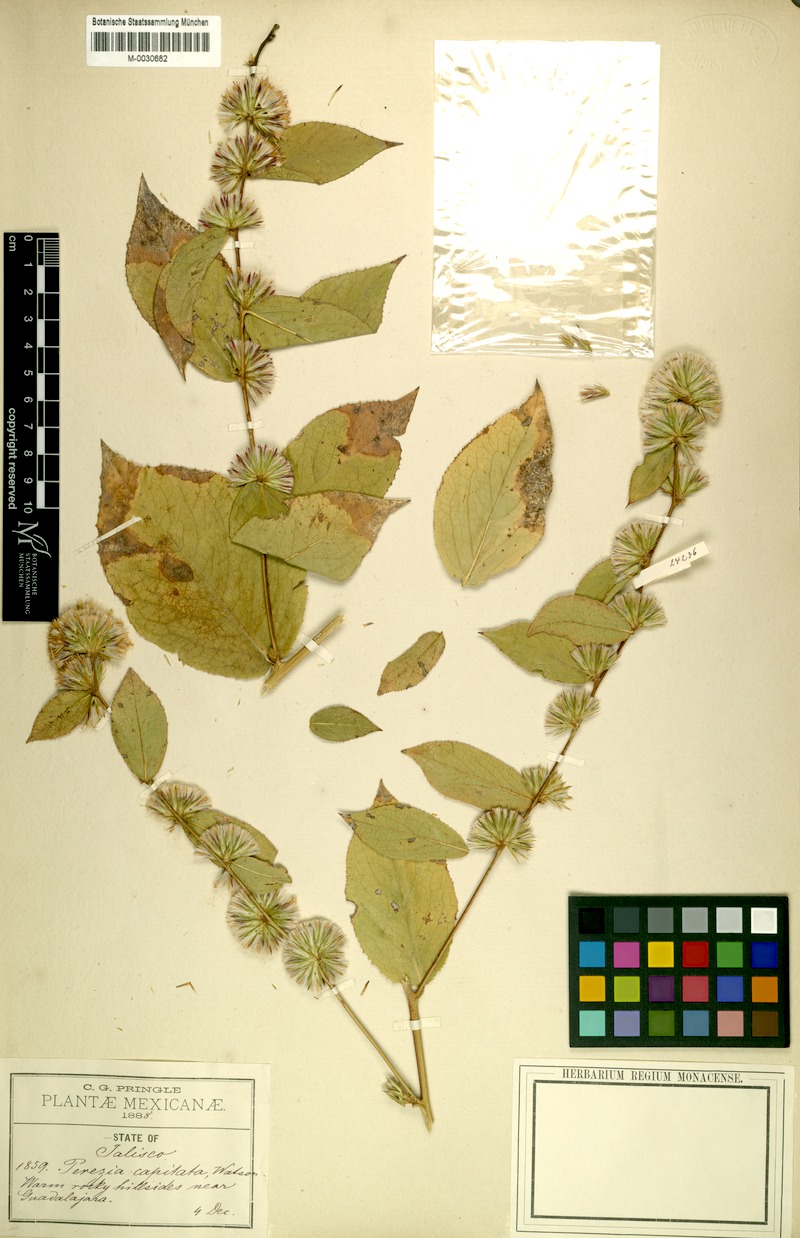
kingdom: Plantae
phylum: Tracheophyta
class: Magnoliopsida
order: Asterales
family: Asteraceae
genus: Acourtia
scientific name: Acourtia glomeriflora
